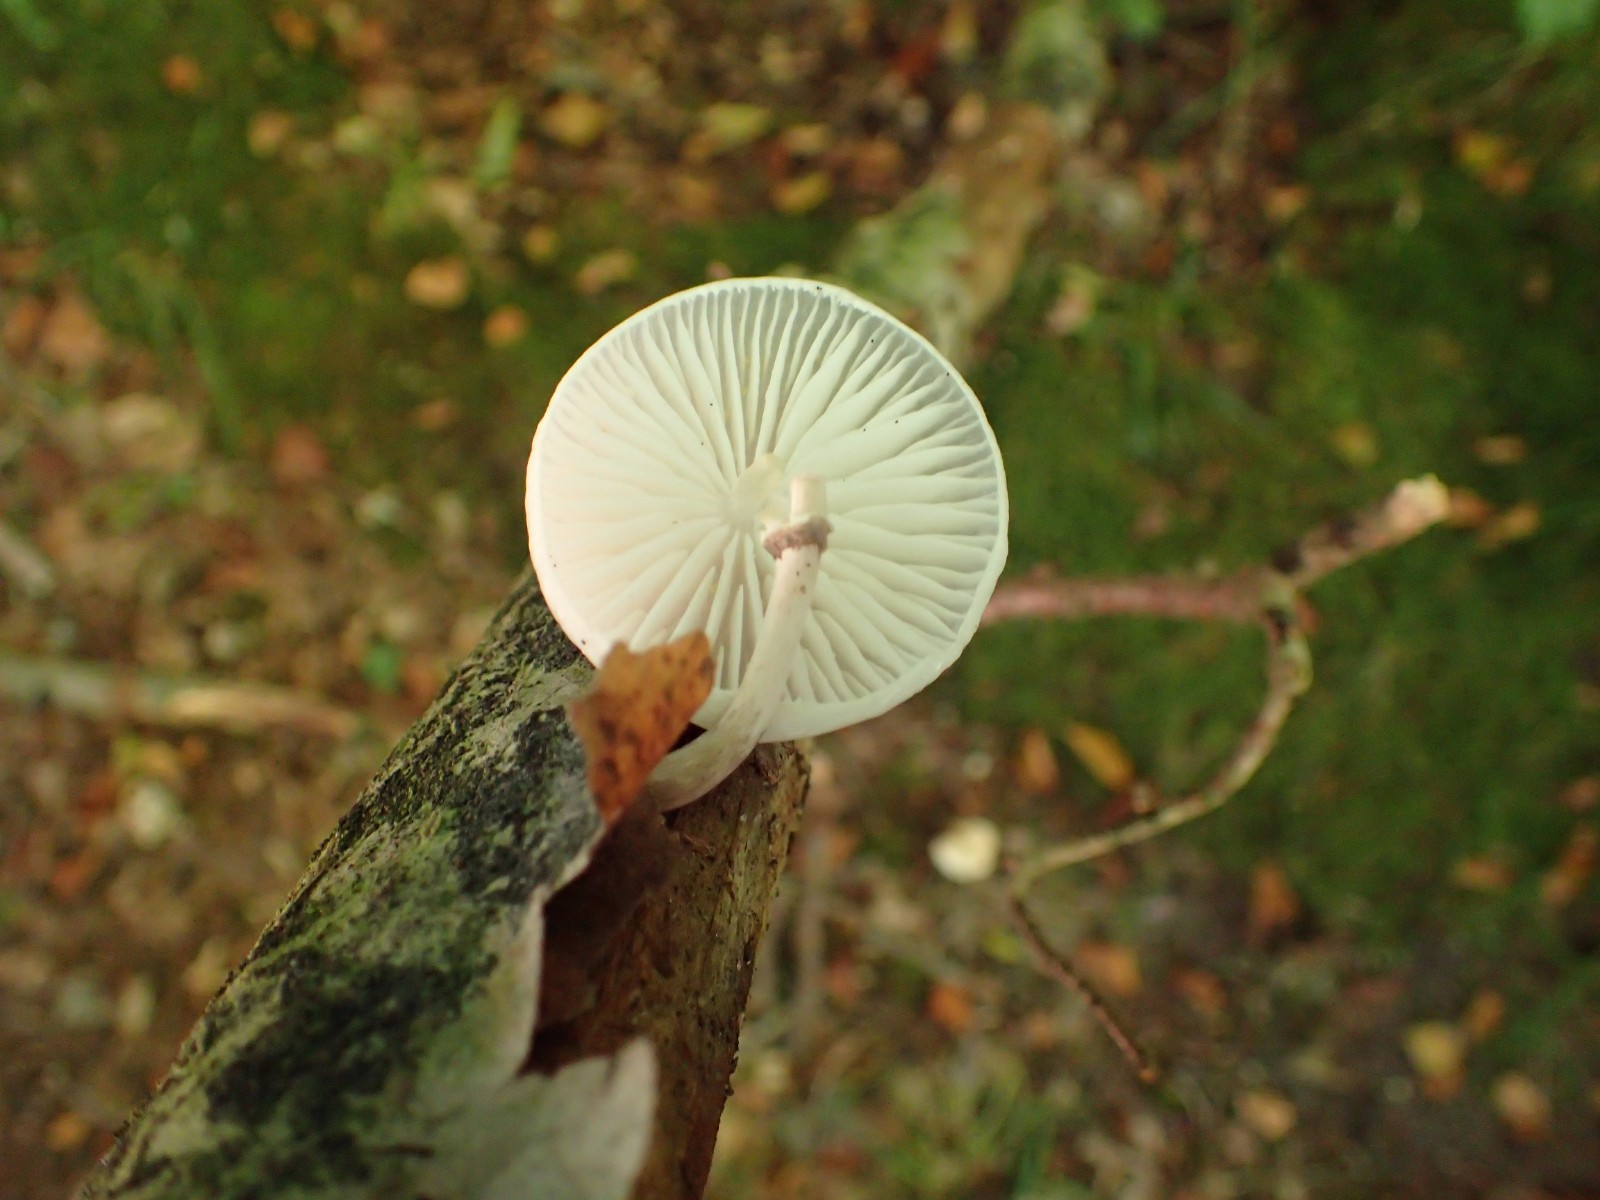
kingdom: Fungi
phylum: Basidiomycota
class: Agaricomycetes
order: Agaricales
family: Physalacriaceae
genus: Mucidula
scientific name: Mucidula mucida
